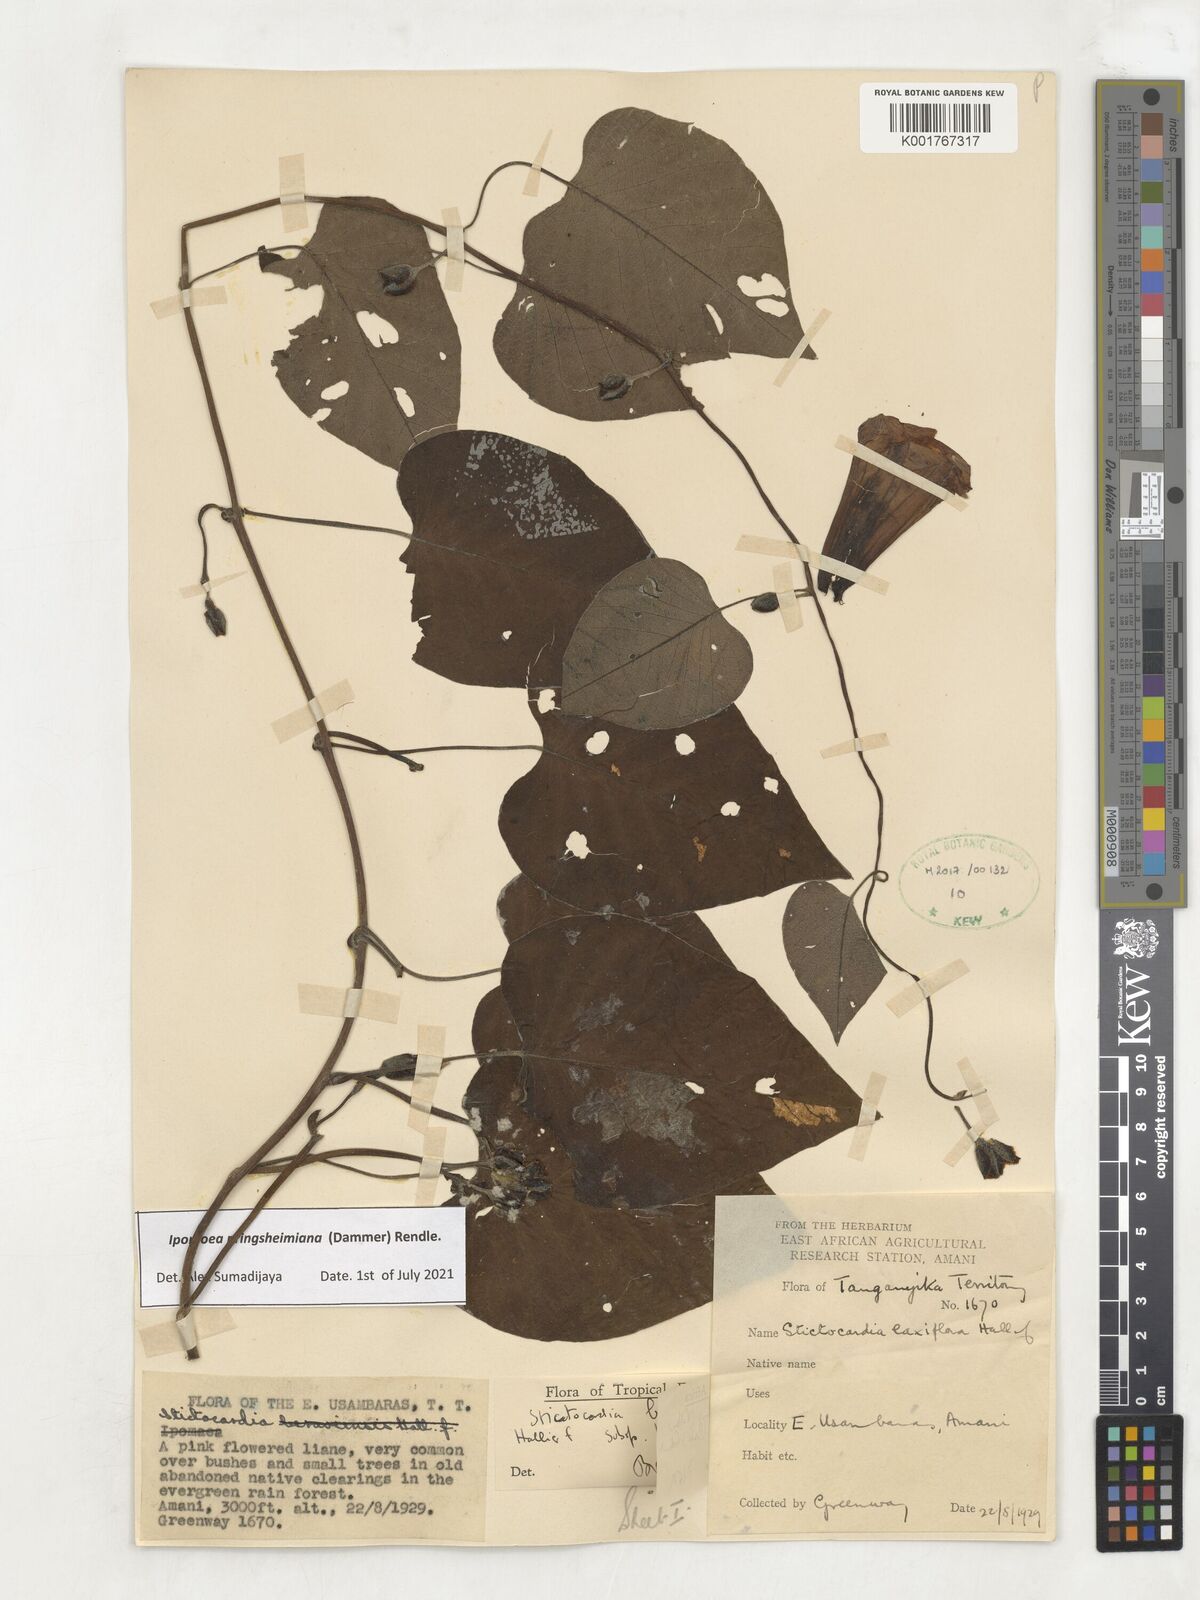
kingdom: Plantae
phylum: Tracheophyta
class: Magnoliopsida
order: Solanales
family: Convolvulaceae
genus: Stictocardia
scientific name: Stictocardia laxiflora
